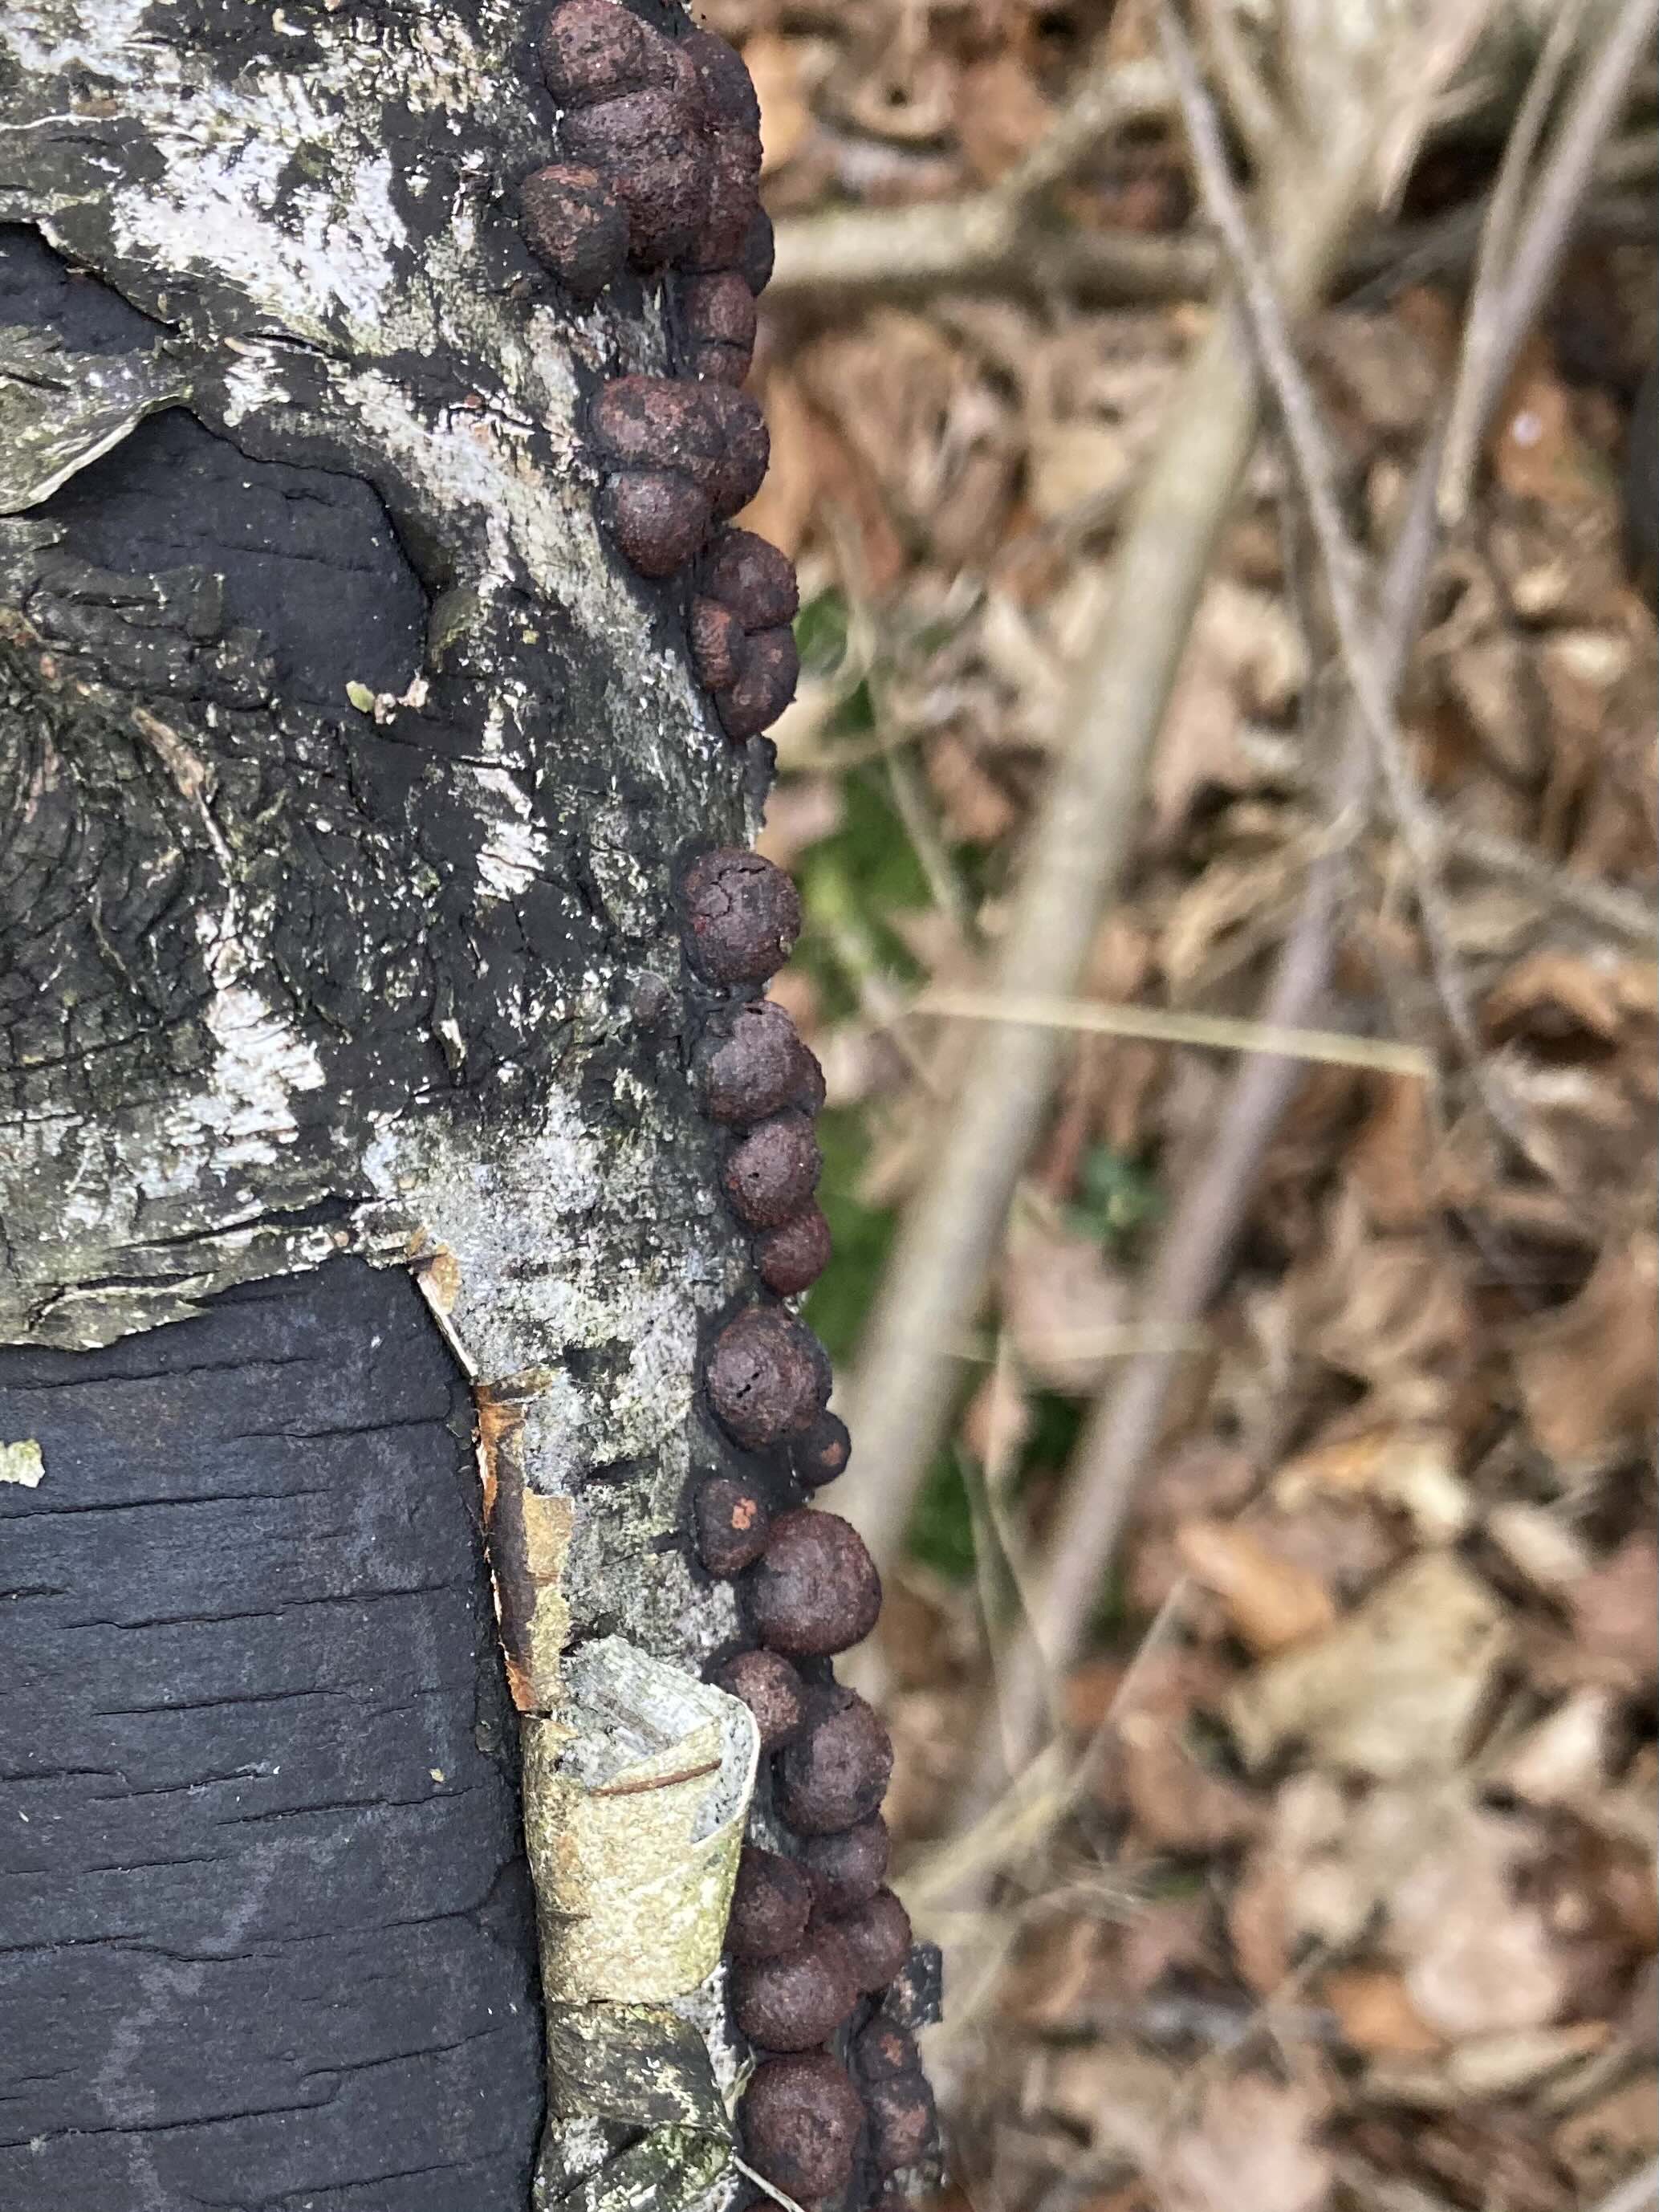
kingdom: Fungi
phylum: Ascomycota
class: Sordariomycetes
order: Xylariales
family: Hypoxylaceae
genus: Hypoxylon
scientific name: Hypoxylon
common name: kulbær
